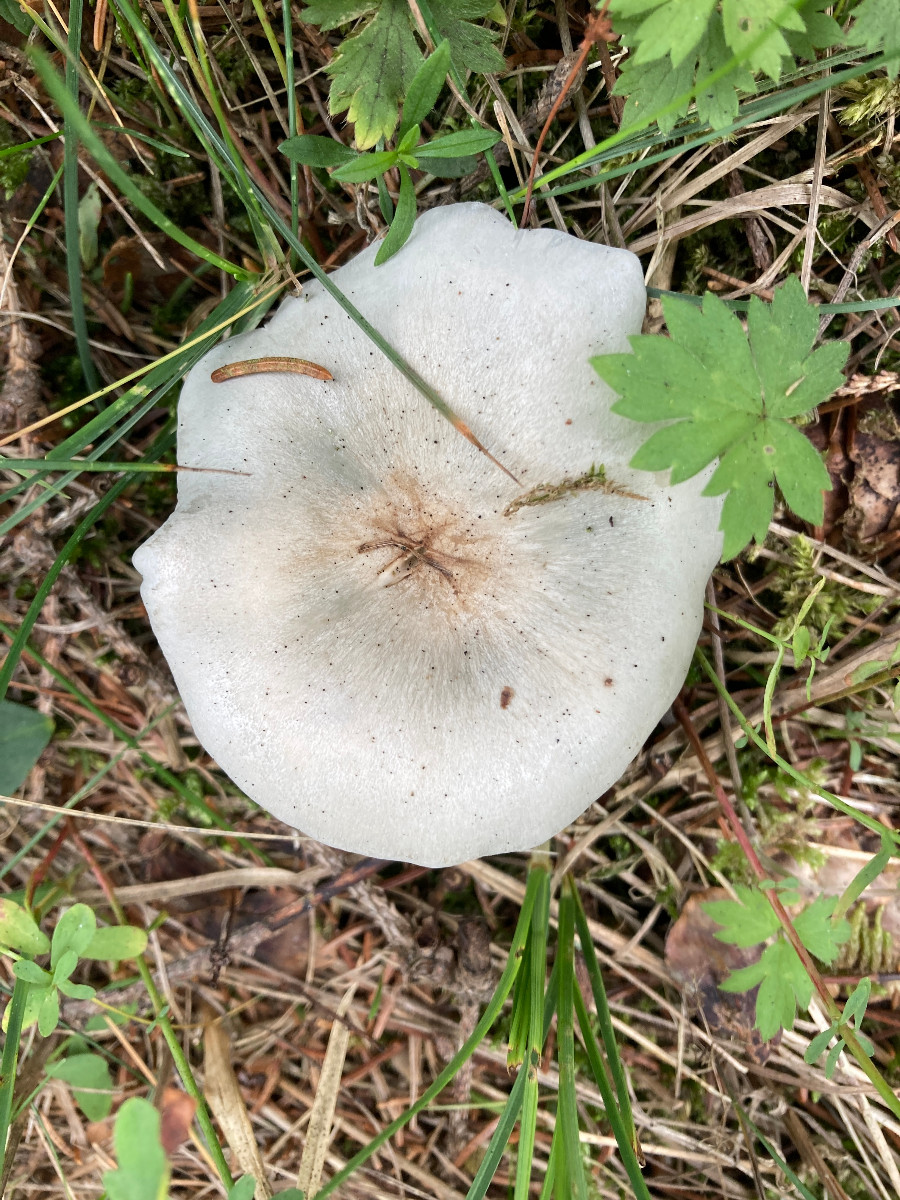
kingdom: Fungi
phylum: Basidiomycota
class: Agaricomycetes
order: Agaricales
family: Tricholomataceae
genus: Clitocybe
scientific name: Clitocybe odora
